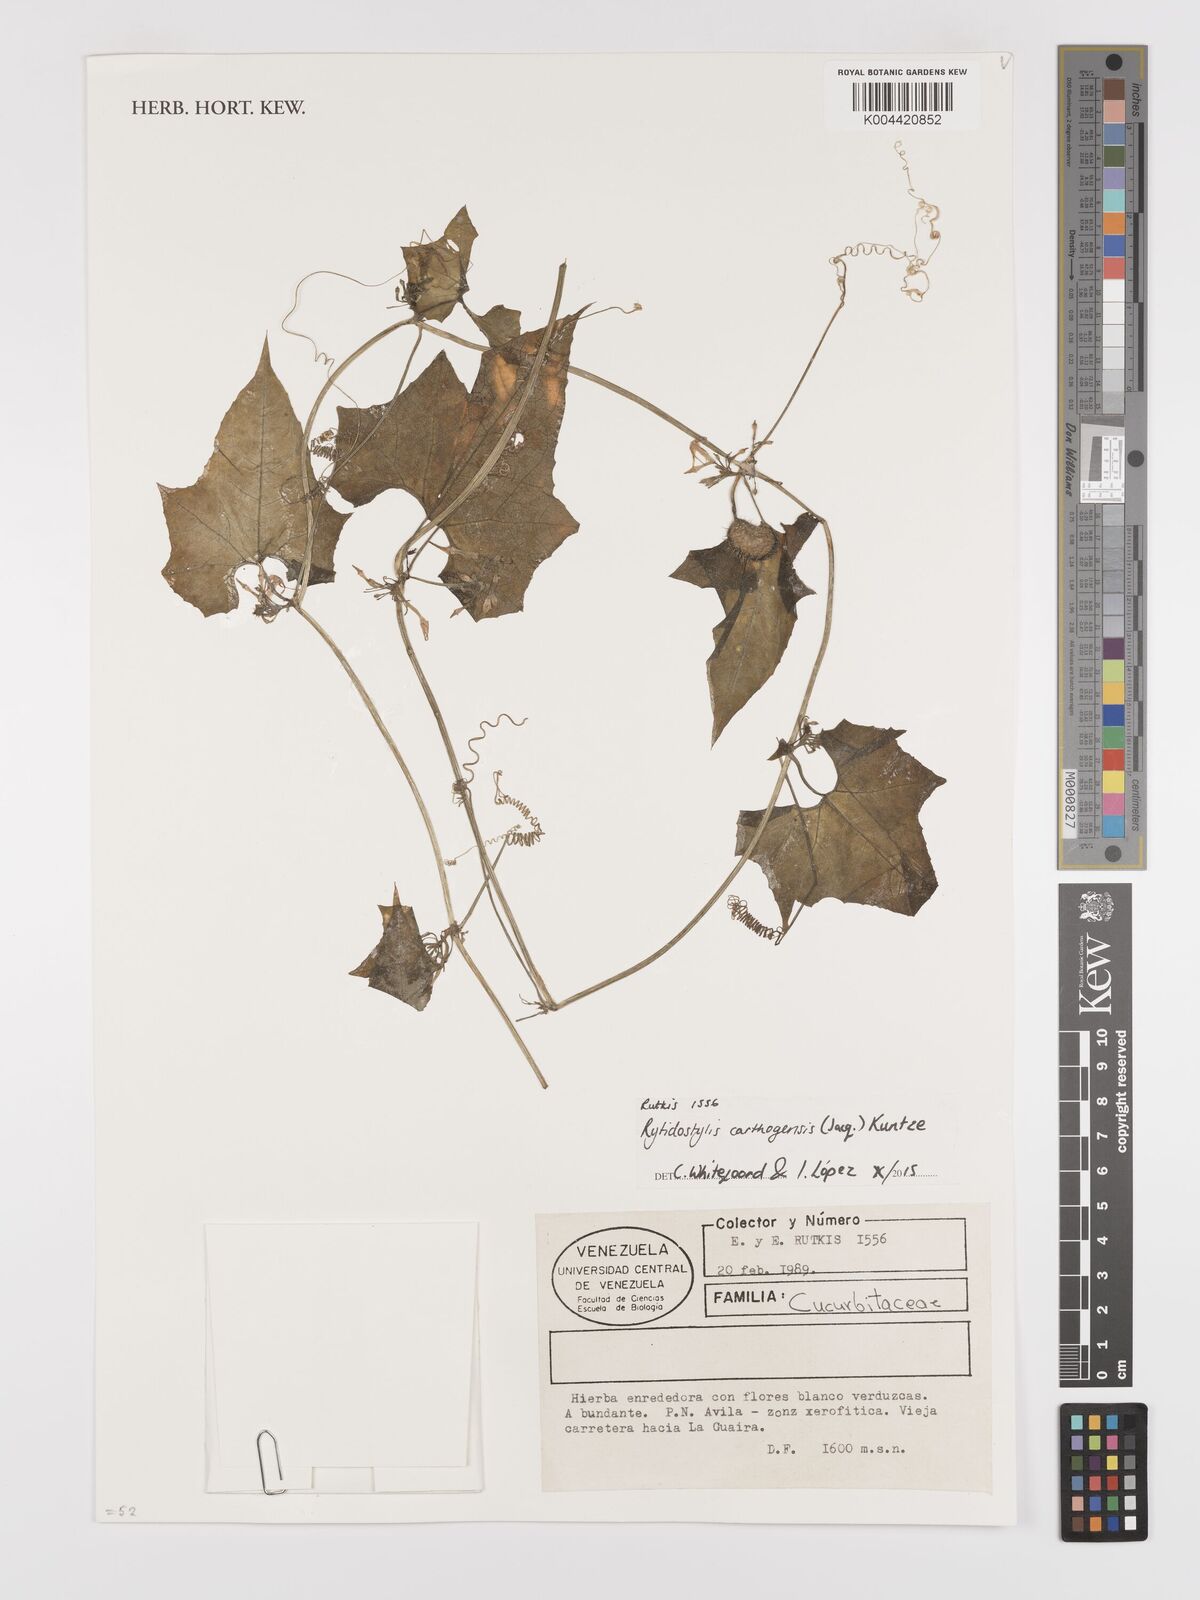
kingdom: Plantae
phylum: Tracheophyta
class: Magnoliopsida
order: Cucurbitales
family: Cucurbitaceae
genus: Cyclanthera
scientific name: Cyclanthera carthagenensis
